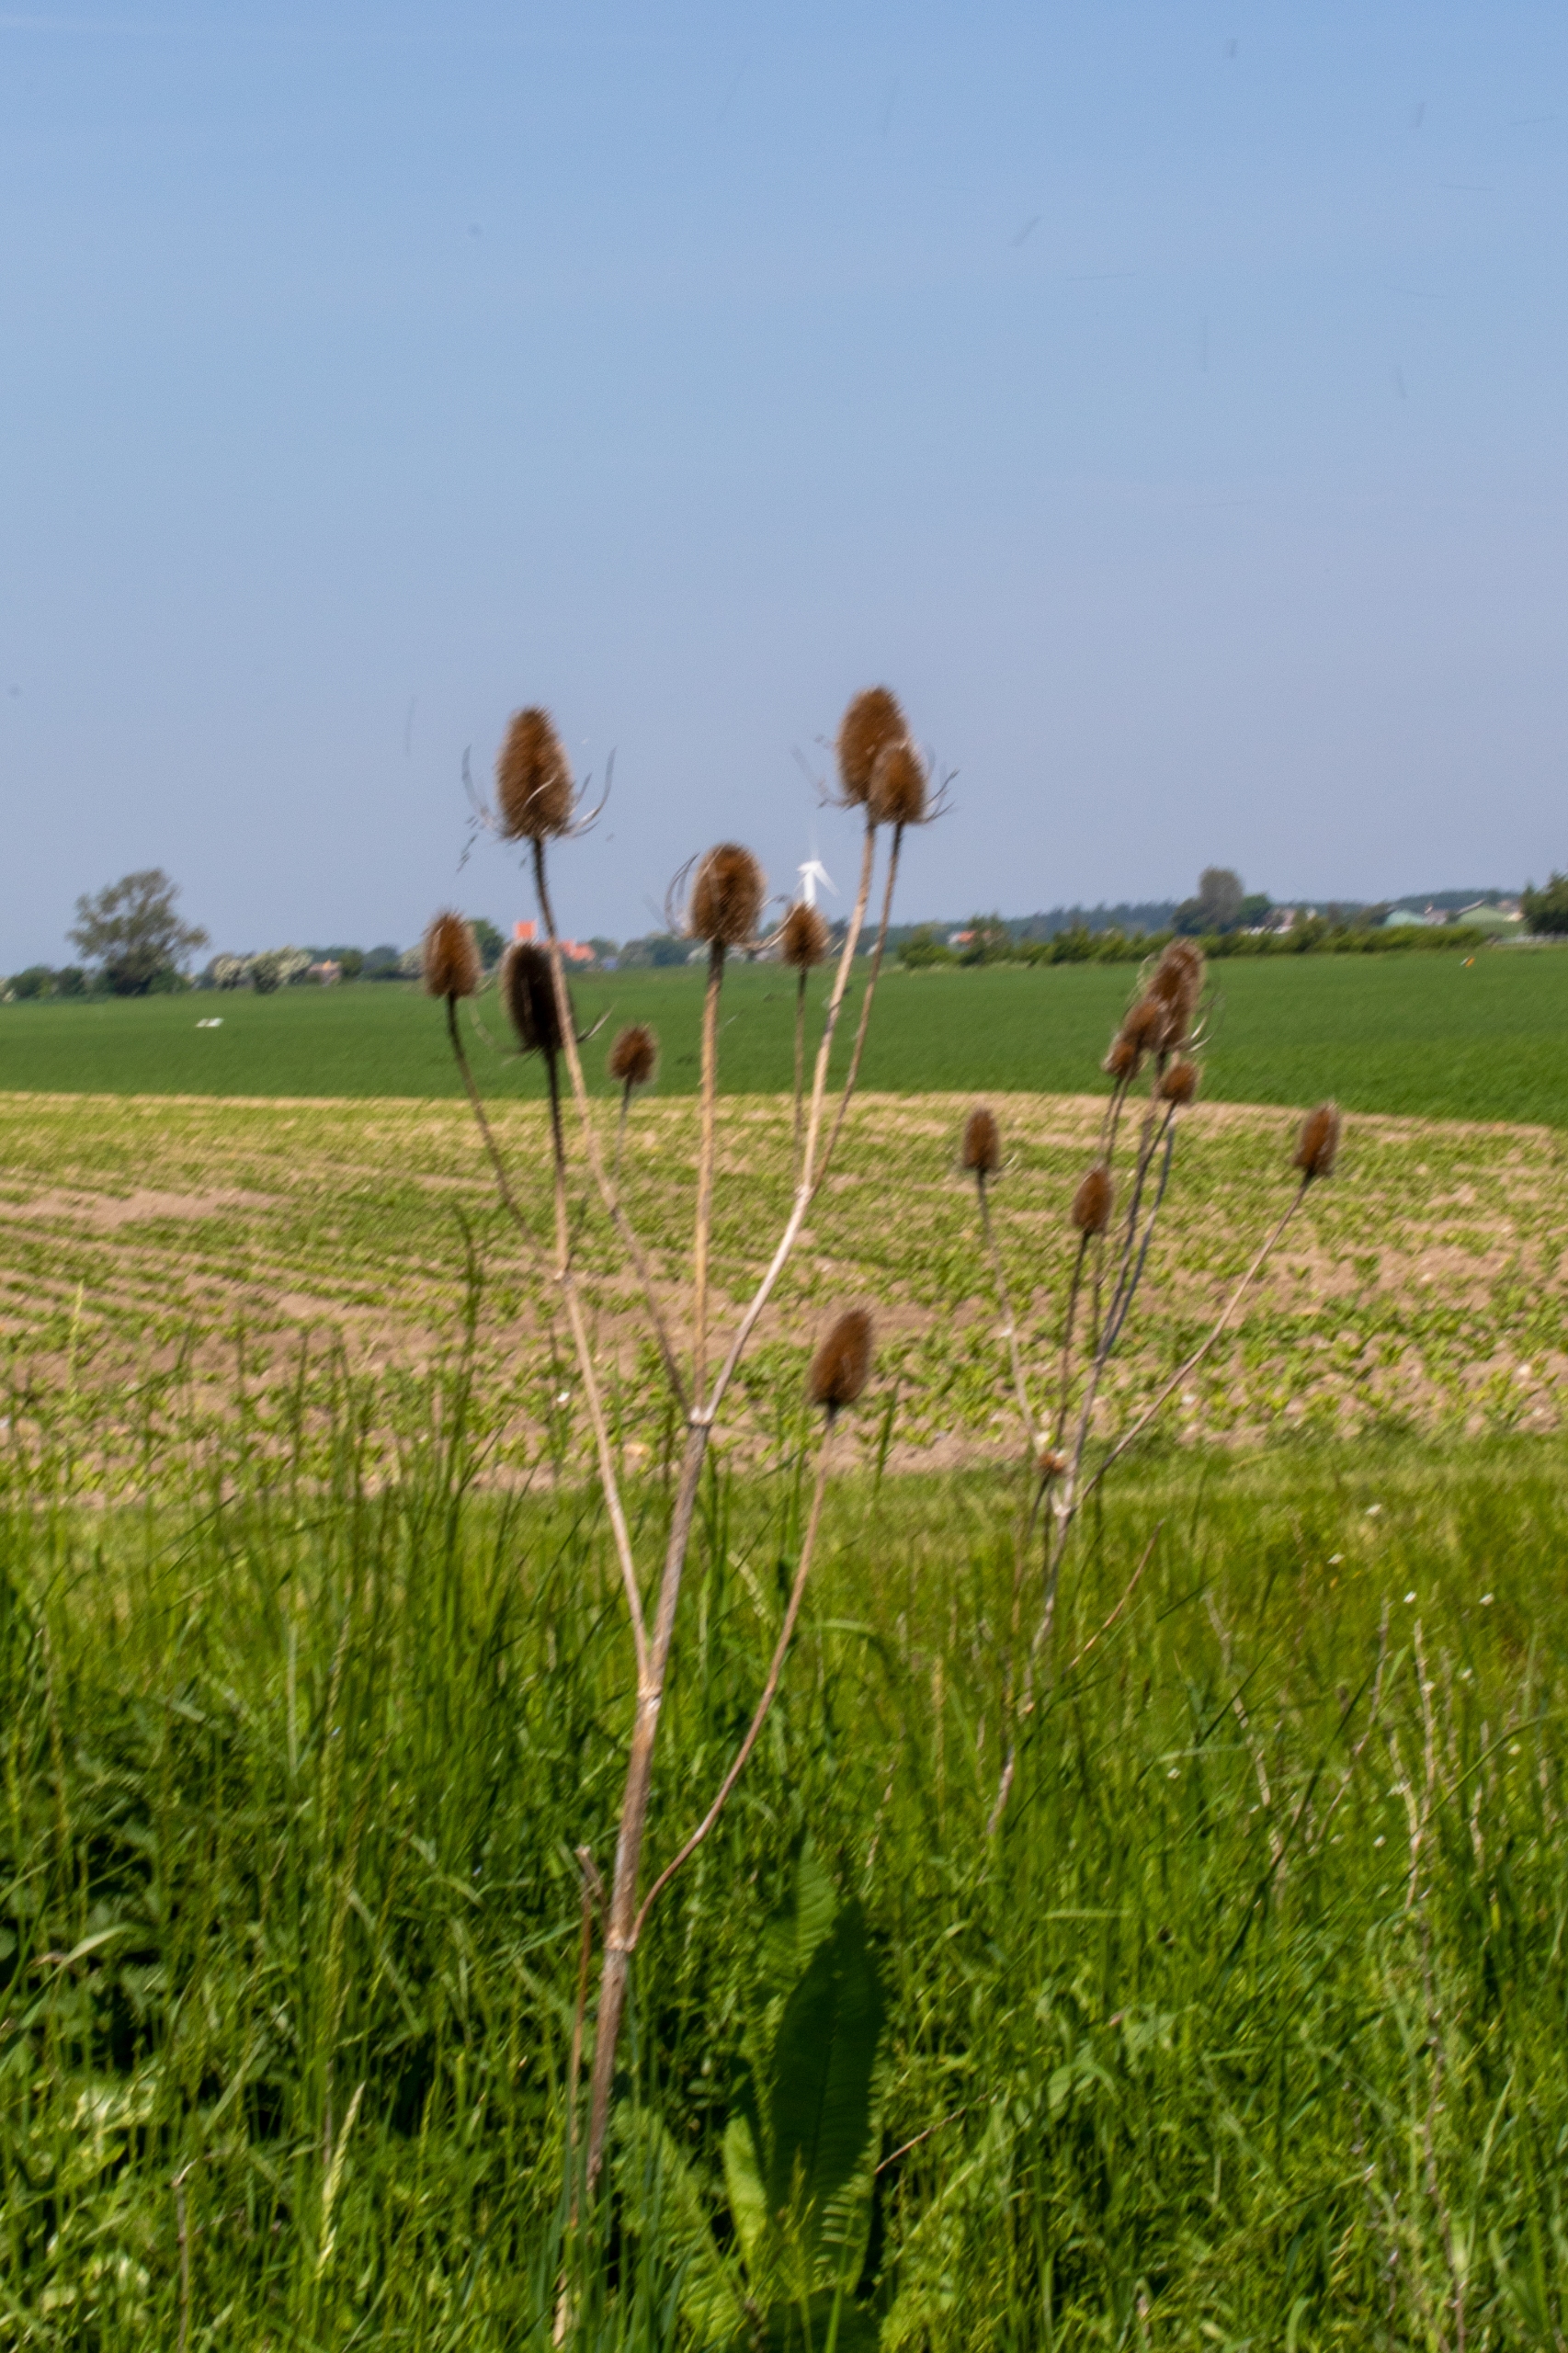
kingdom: Plantae
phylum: Tracheophyta
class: Magnoliopsida
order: Dipsacales
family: Caprifoliaceae
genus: Dipsacus
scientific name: Dipsacus fullonum
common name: Gærde-kartebolle
